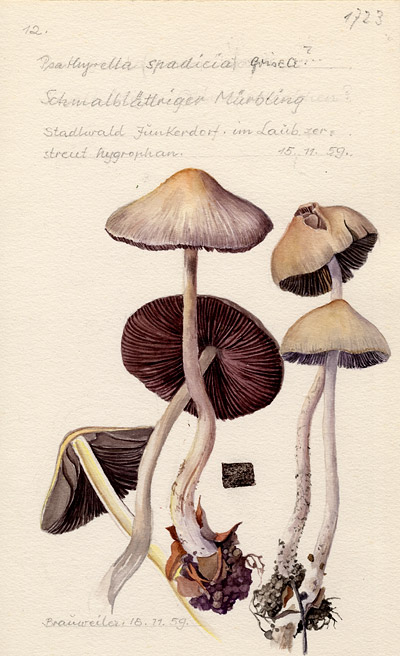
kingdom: Fungi
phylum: Basidiomycota
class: Agaricomycetes
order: Agaricales
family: Psathyrellaceae
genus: Psathyrella
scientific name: Psathyrella spadiceogrisea
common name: Spring brittlestem
